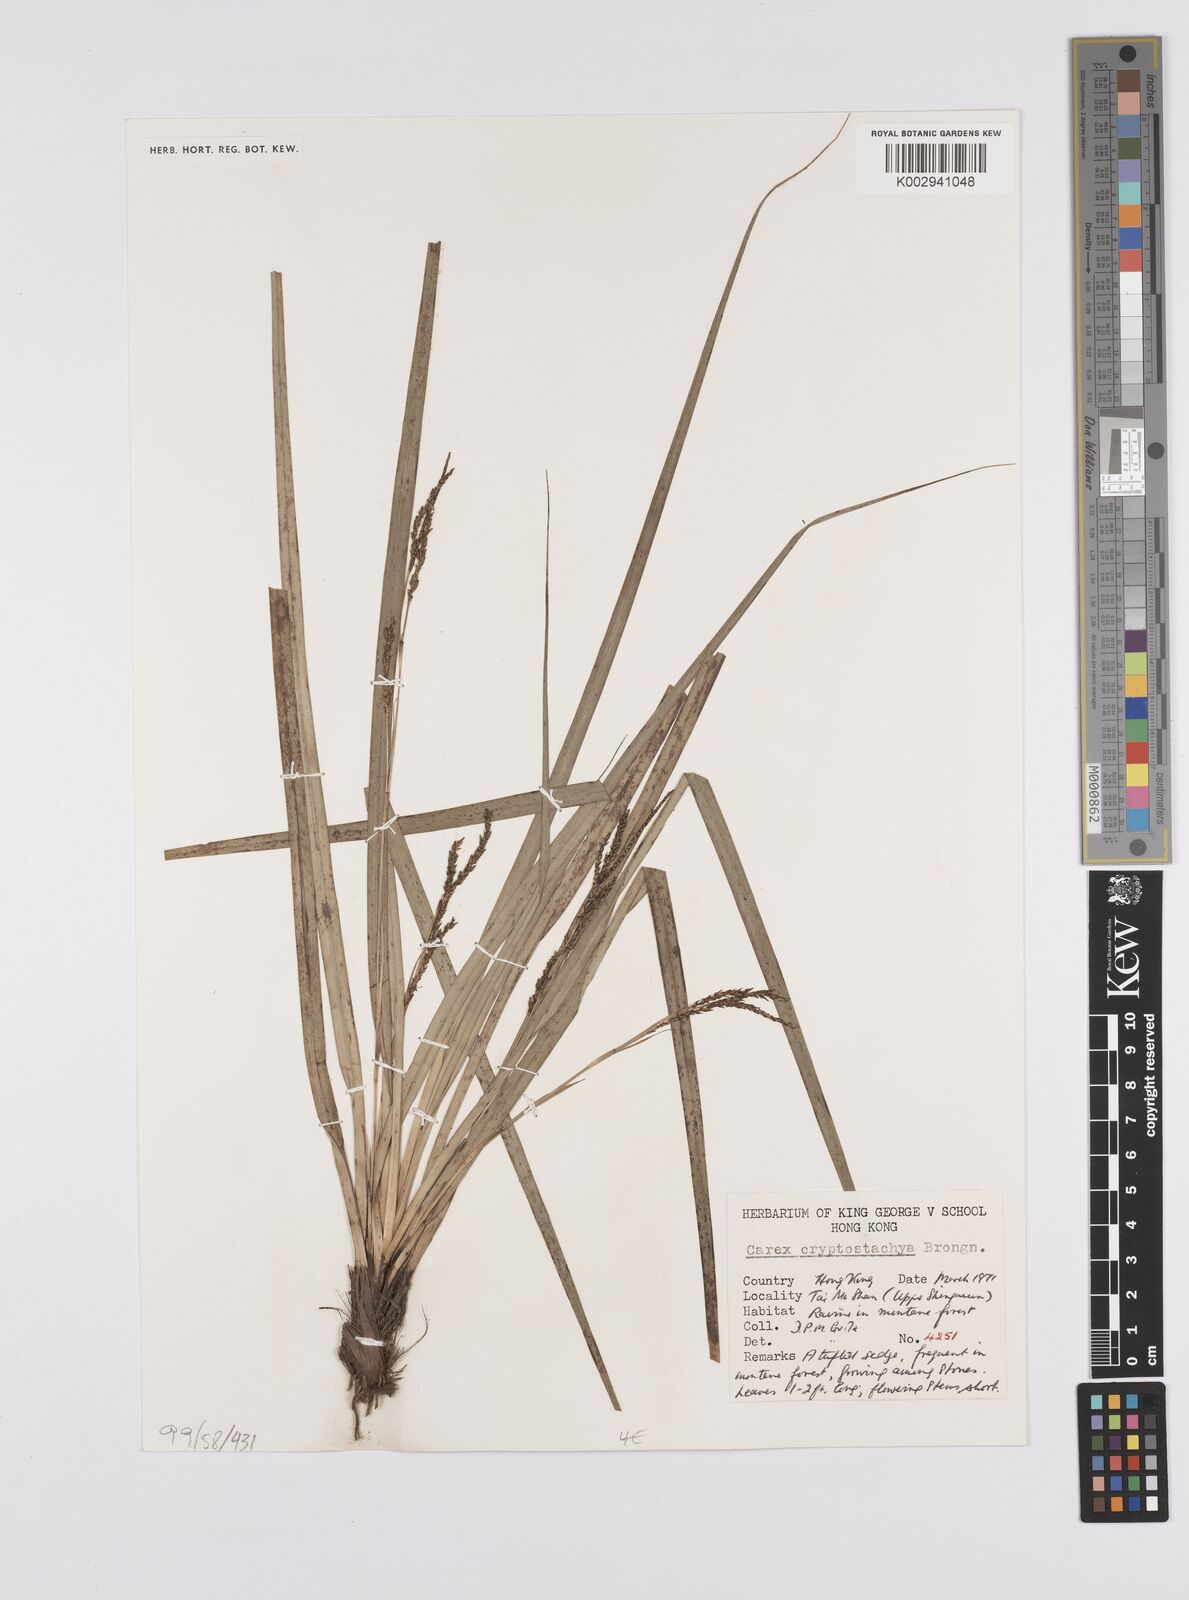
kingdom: Plantae
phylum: Tracheophyta
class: Liliopsida
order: Poales
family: Cyperaceae
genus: Carex
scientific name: Carex cryptostachys
